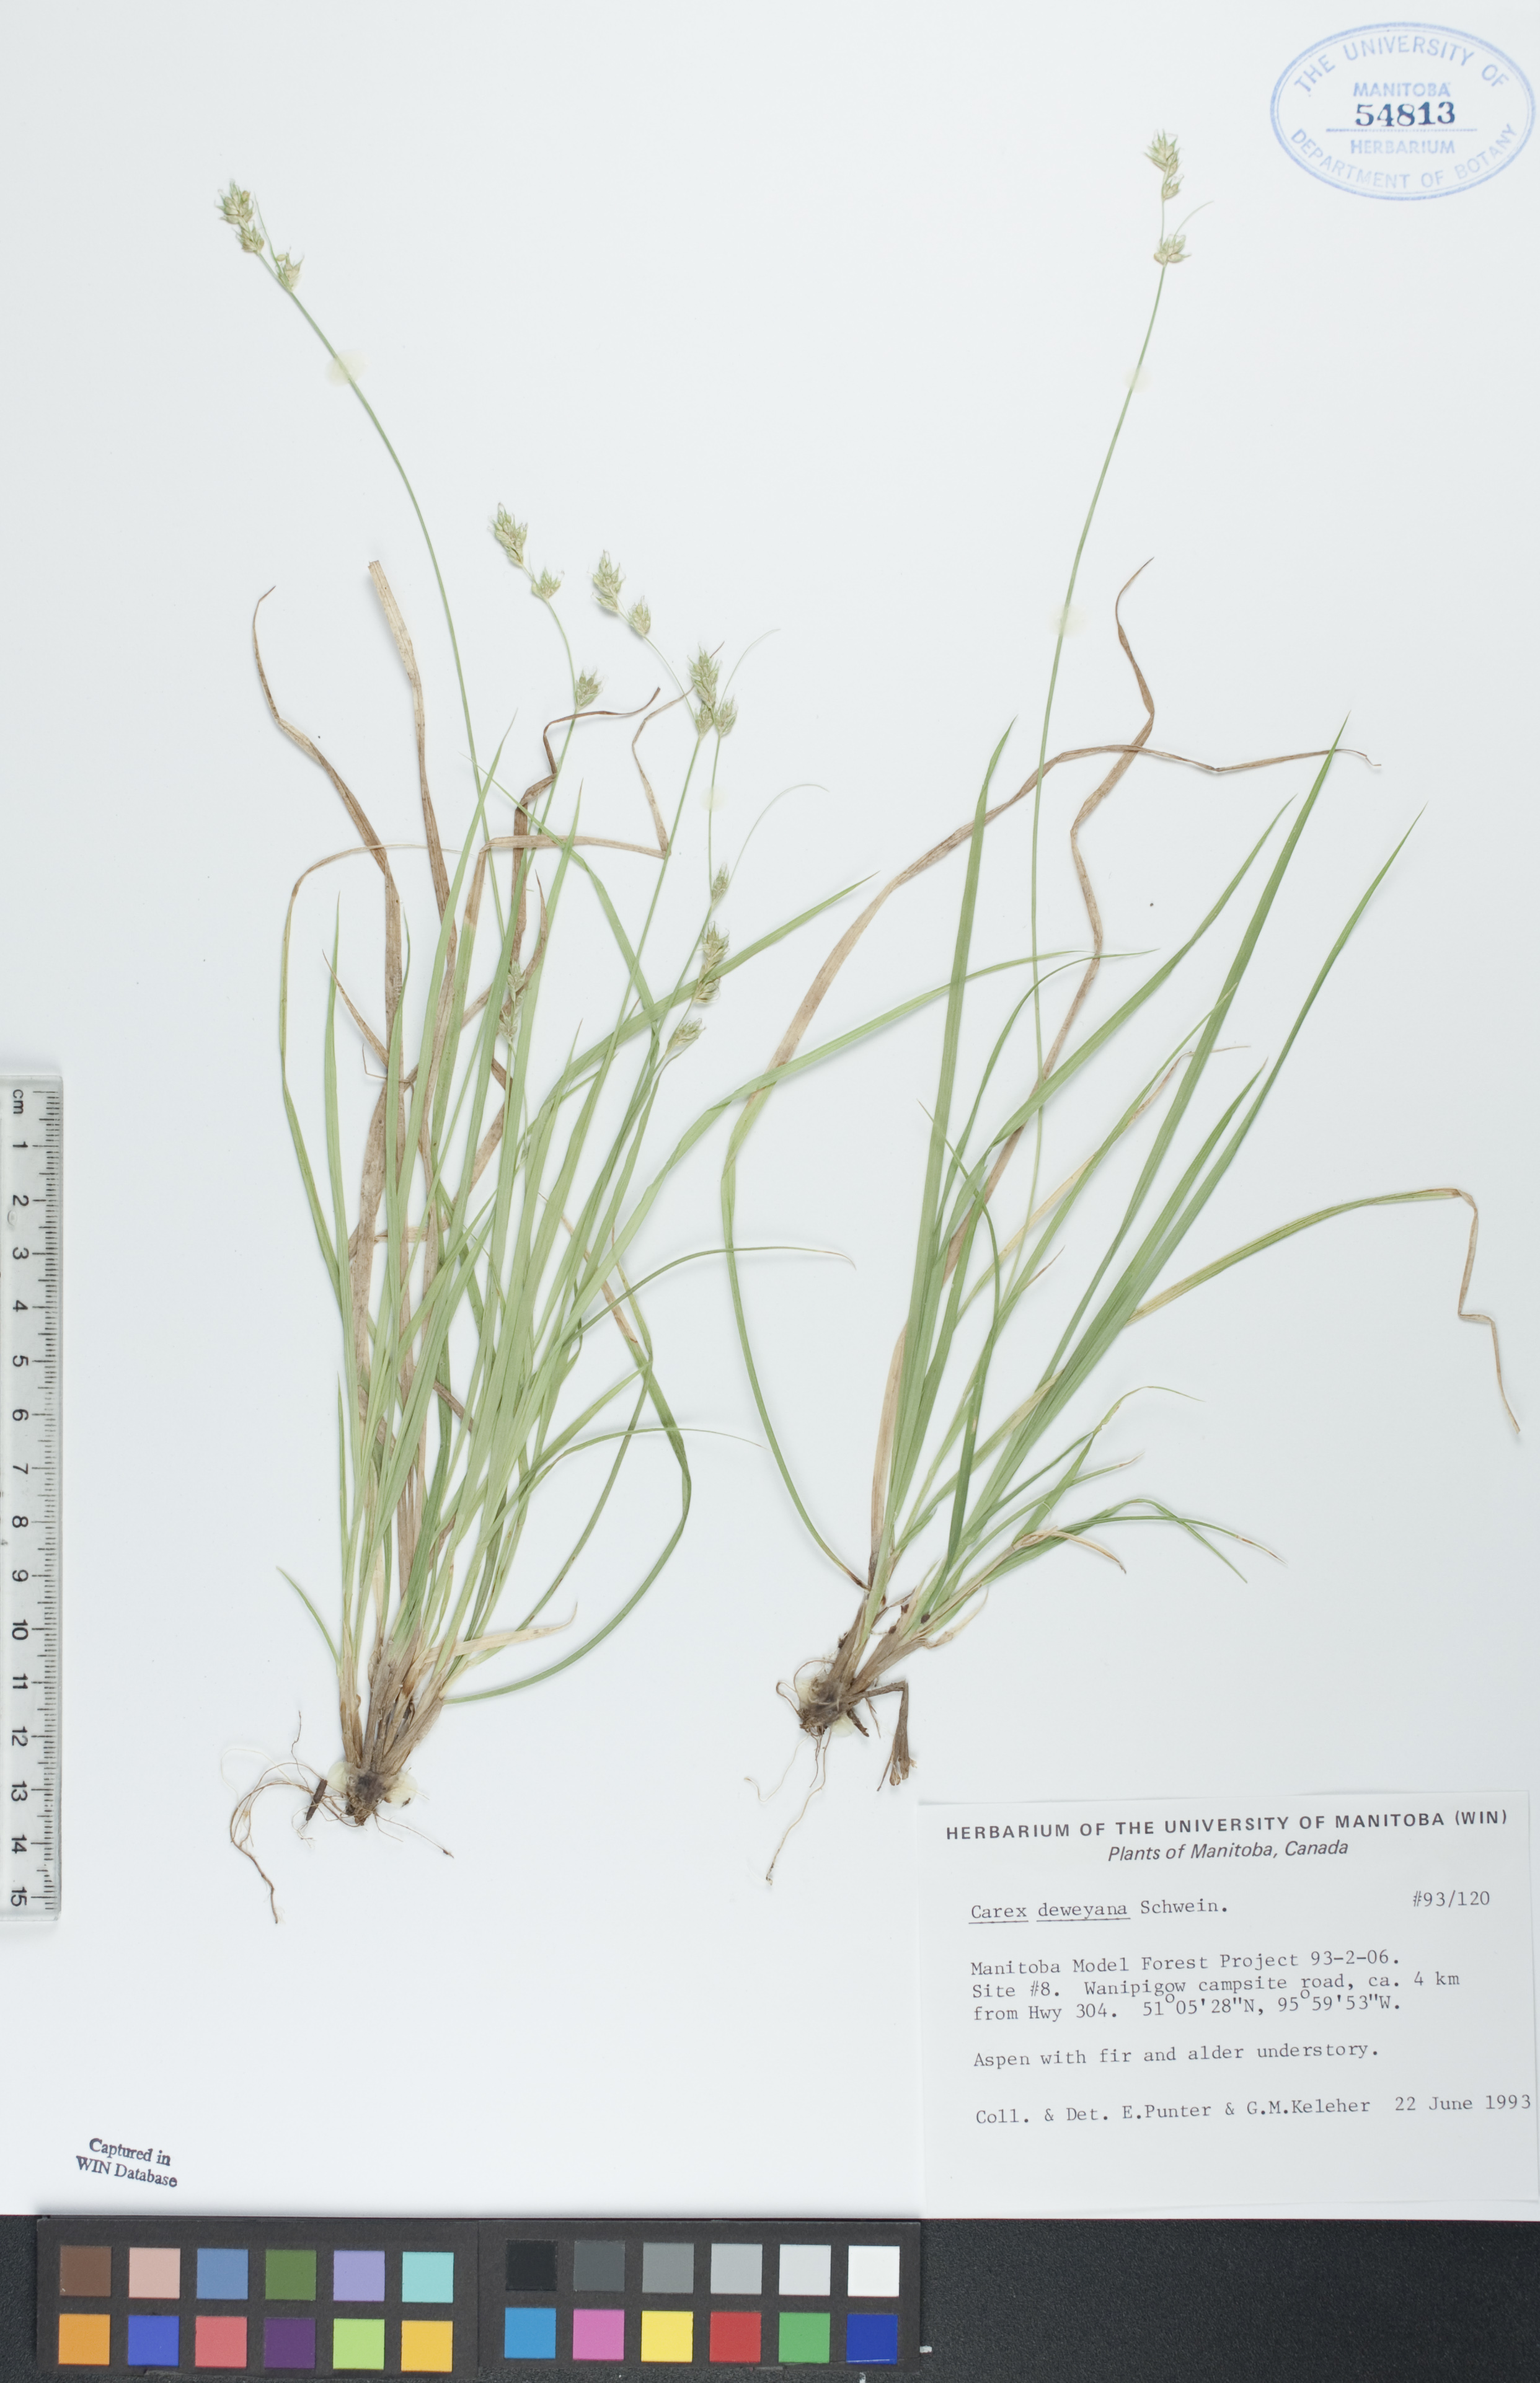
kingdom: Plantae
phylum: Tracheophyta
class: Liliopsida
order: Poales
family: Cyperaceae
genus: Carex
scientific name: Carex deweyana
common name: Dewey's sedge
